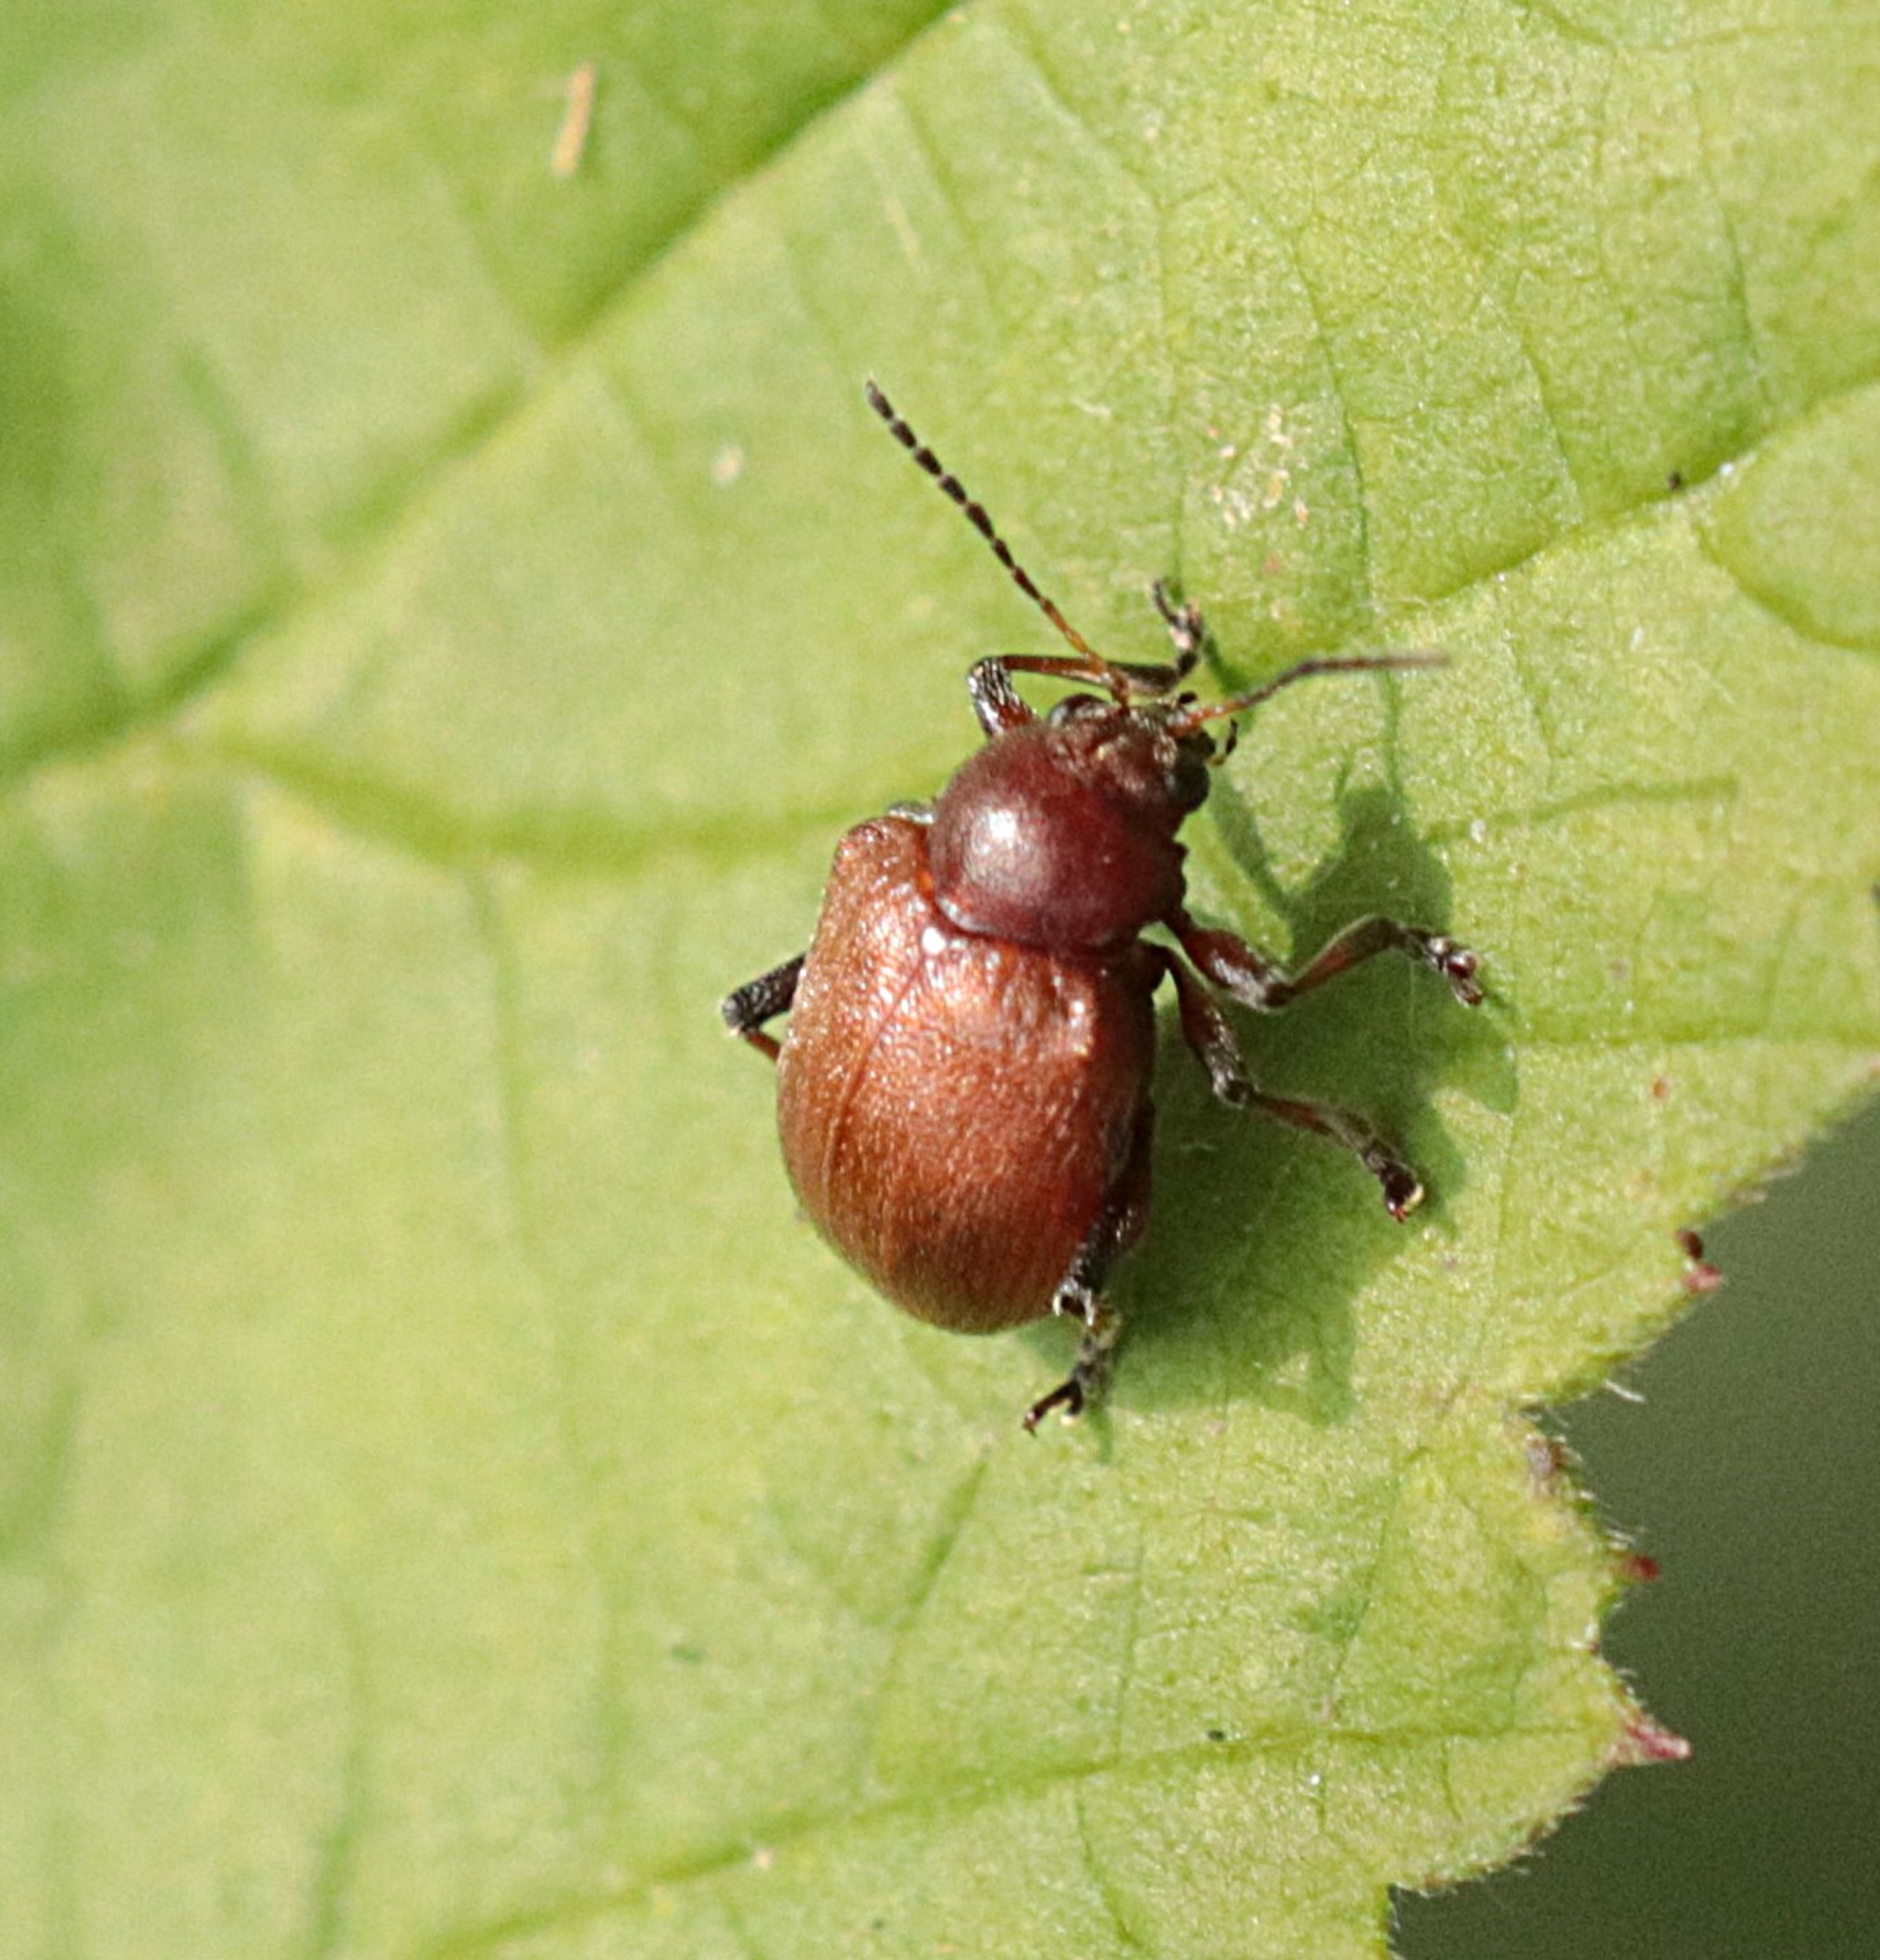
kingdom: Animalia
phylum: Arthropoda
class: Insecta
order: Coleoptera
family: Chrysomelidae
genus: Bromius
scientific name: Bromius obscurus
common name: Gederamsbille
